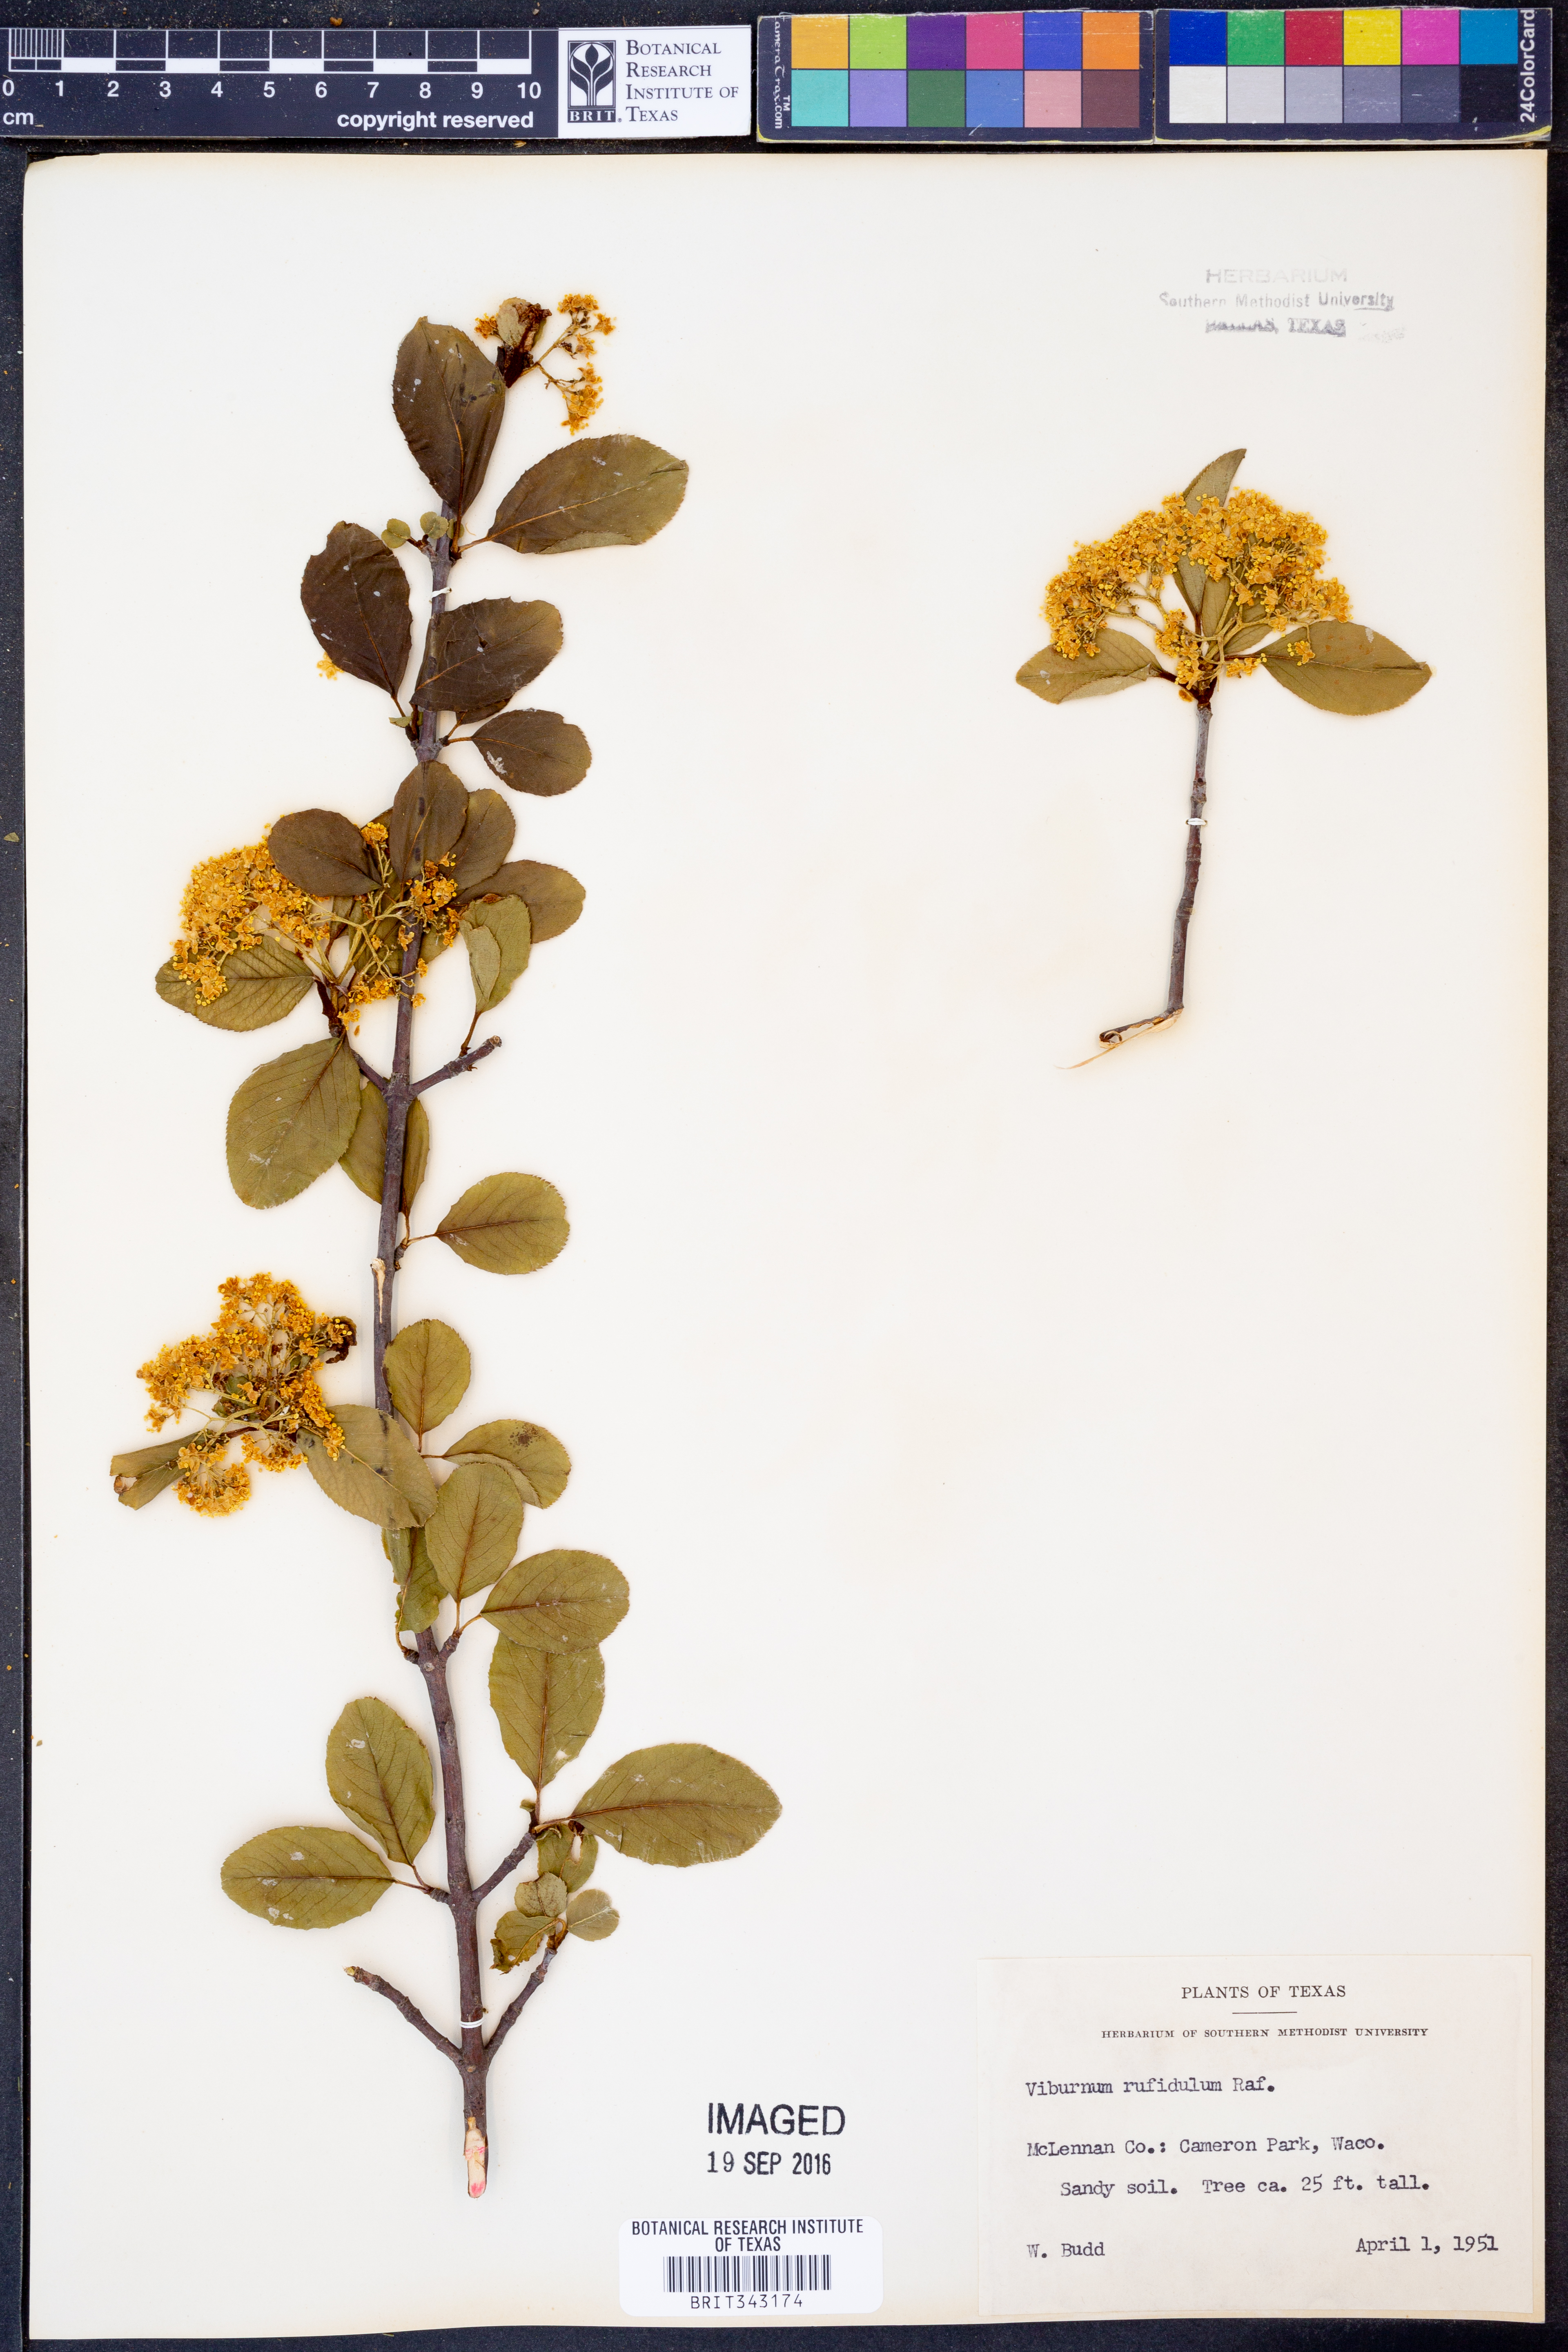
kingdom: Plantae
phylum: Tracheophyta
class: Magnoliopsida
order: Dipsacales
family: Viburnaceae
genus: Viburnum
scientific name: Viburnum rufidulum
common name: Blue haw
